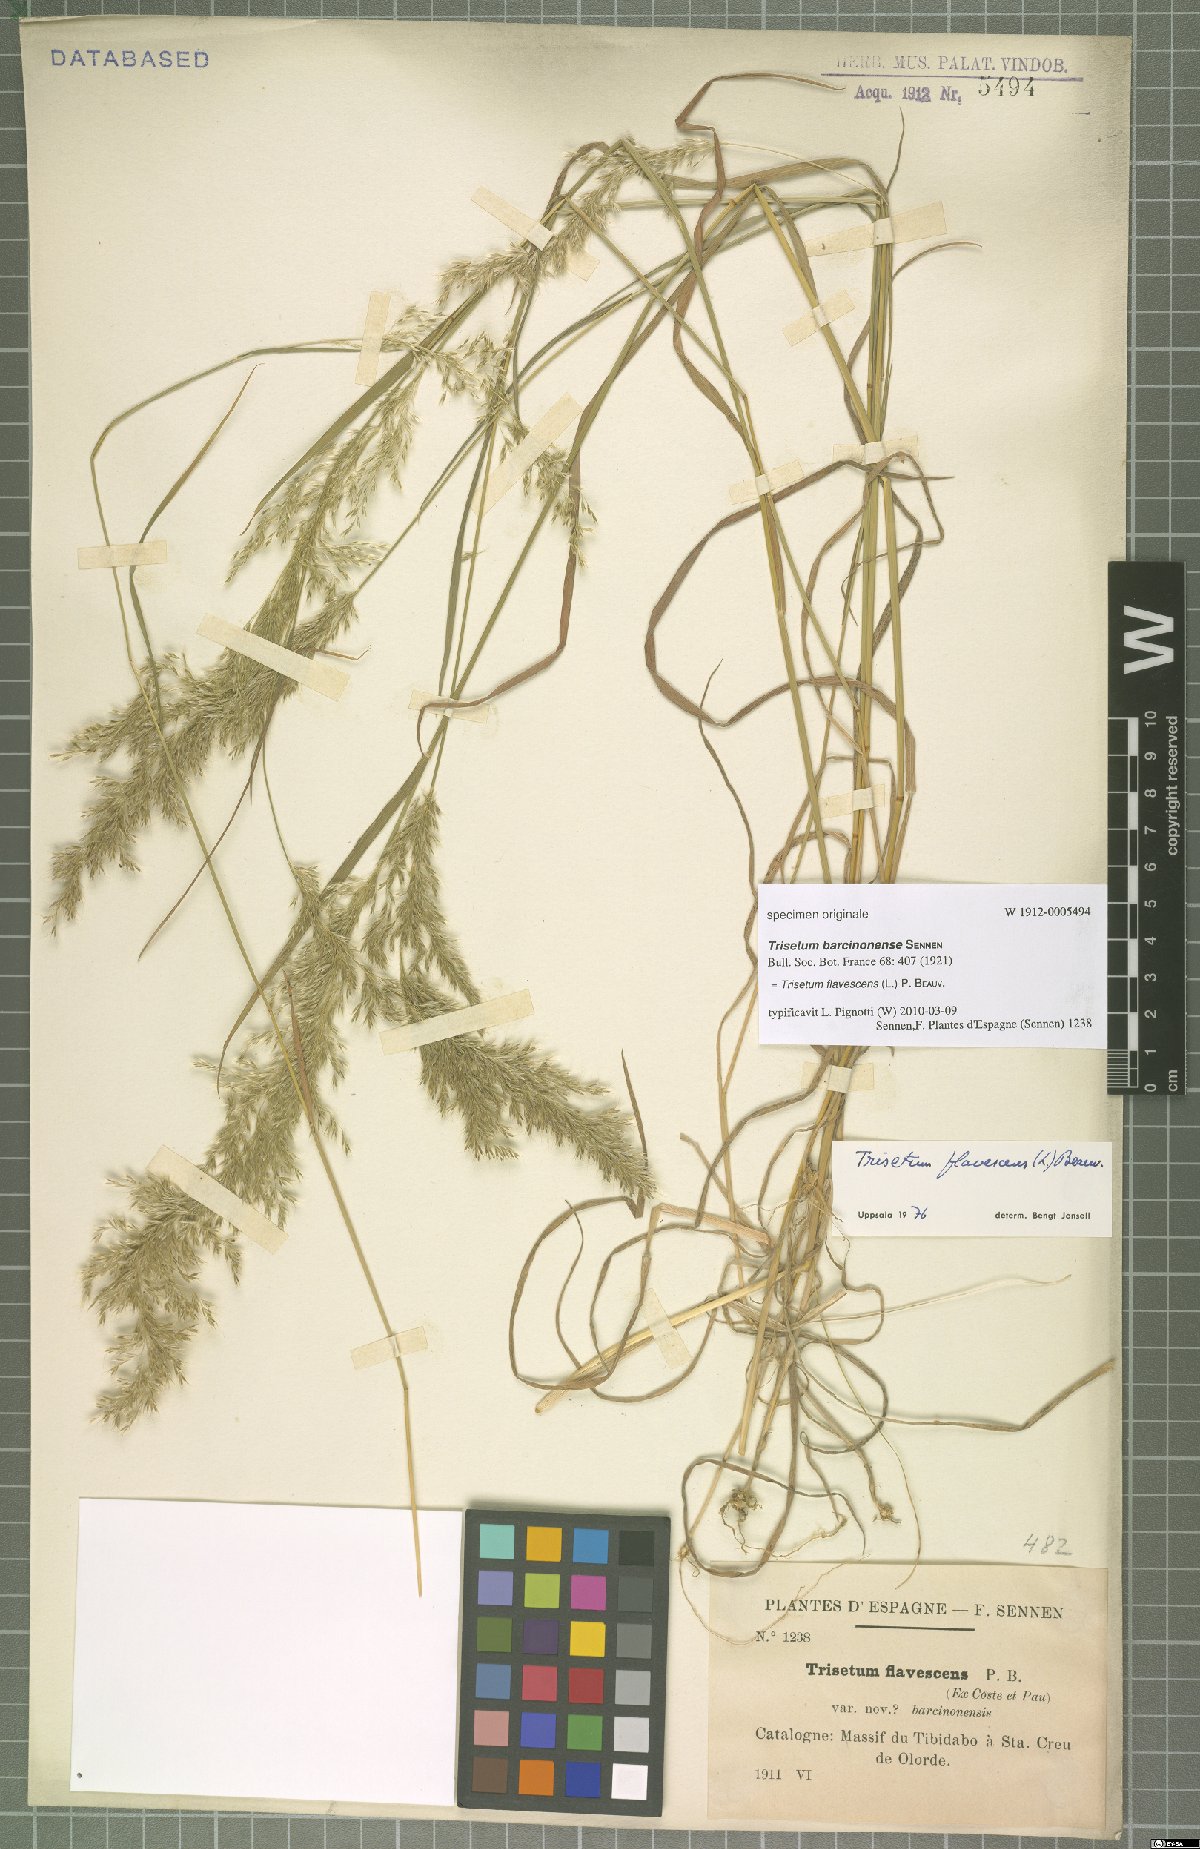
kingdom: Plantae
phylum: Tracheophyta
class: Liliopsida
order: Poales
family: Poaceae
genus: Trisetum
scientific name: Trisetum flavescens
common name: Yellow oat-grass
